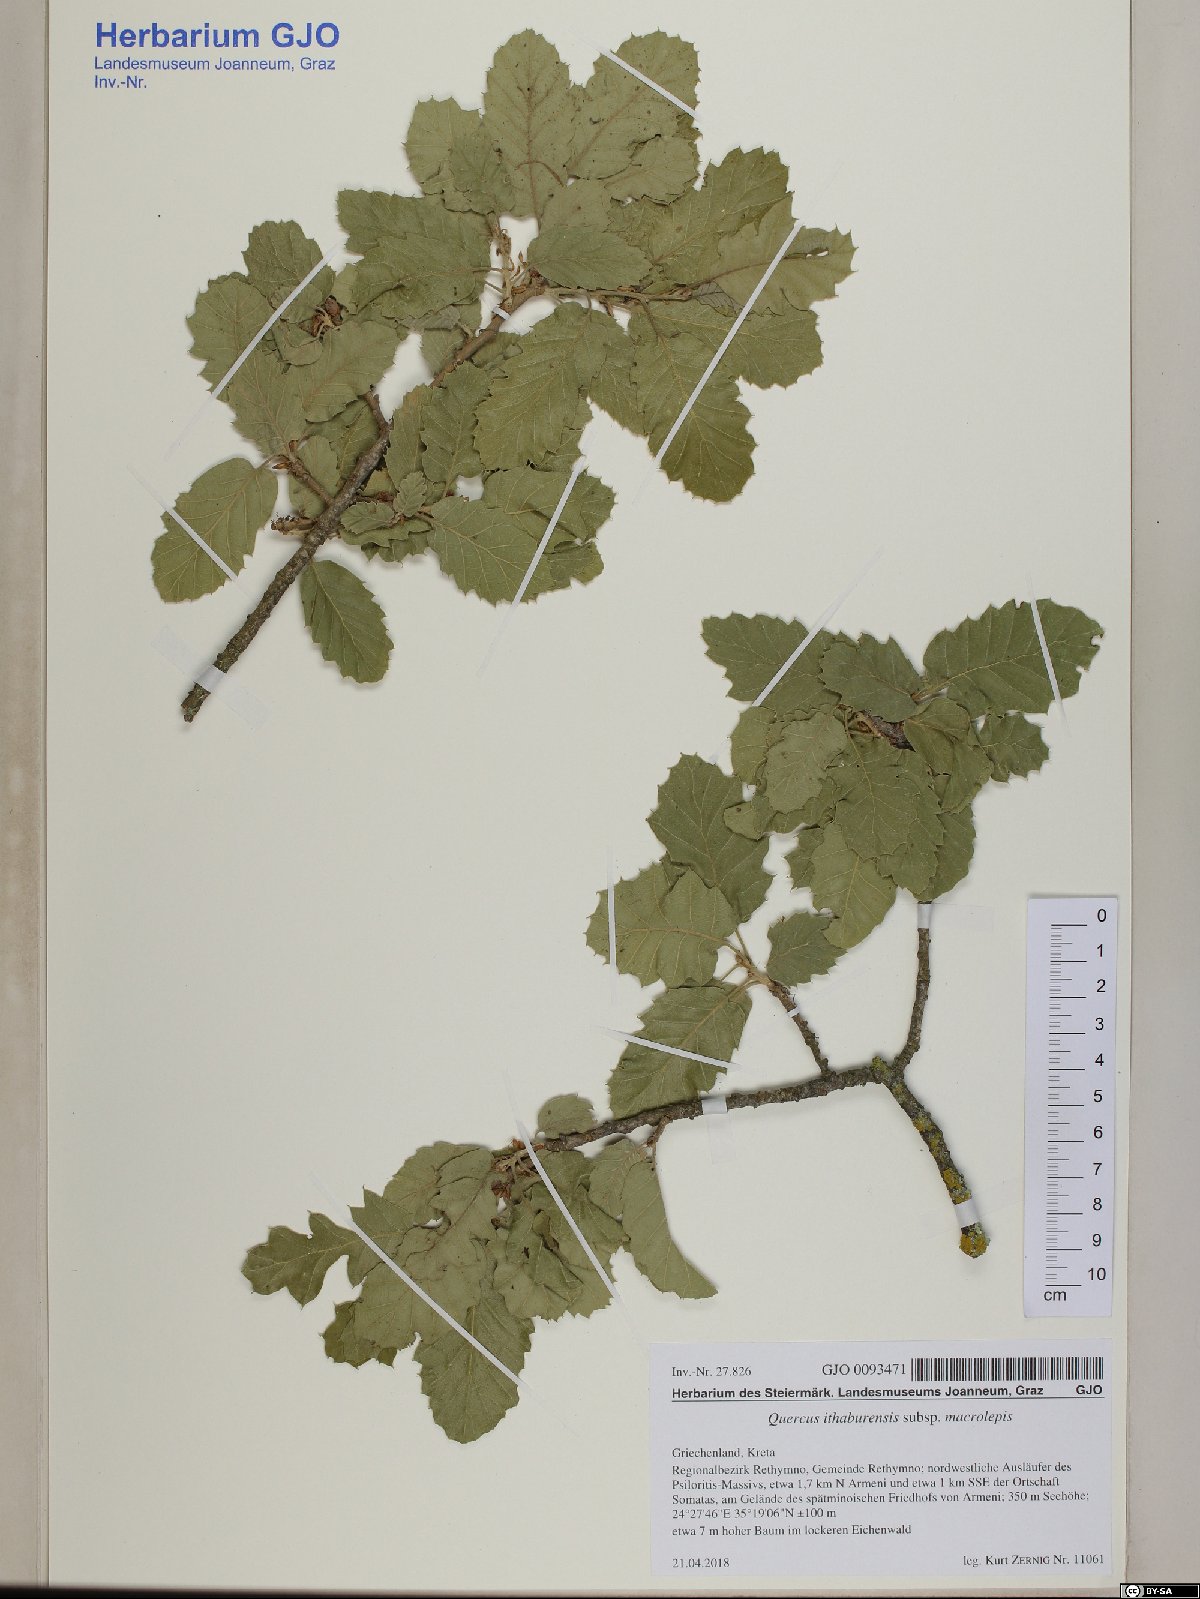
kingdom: Plantae
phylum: Tracheophyta
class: Magnoliopsida
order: Fagales
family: Fagaceae
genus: Quercus
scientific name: Quercus ithaburensis
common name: Tabor oak
